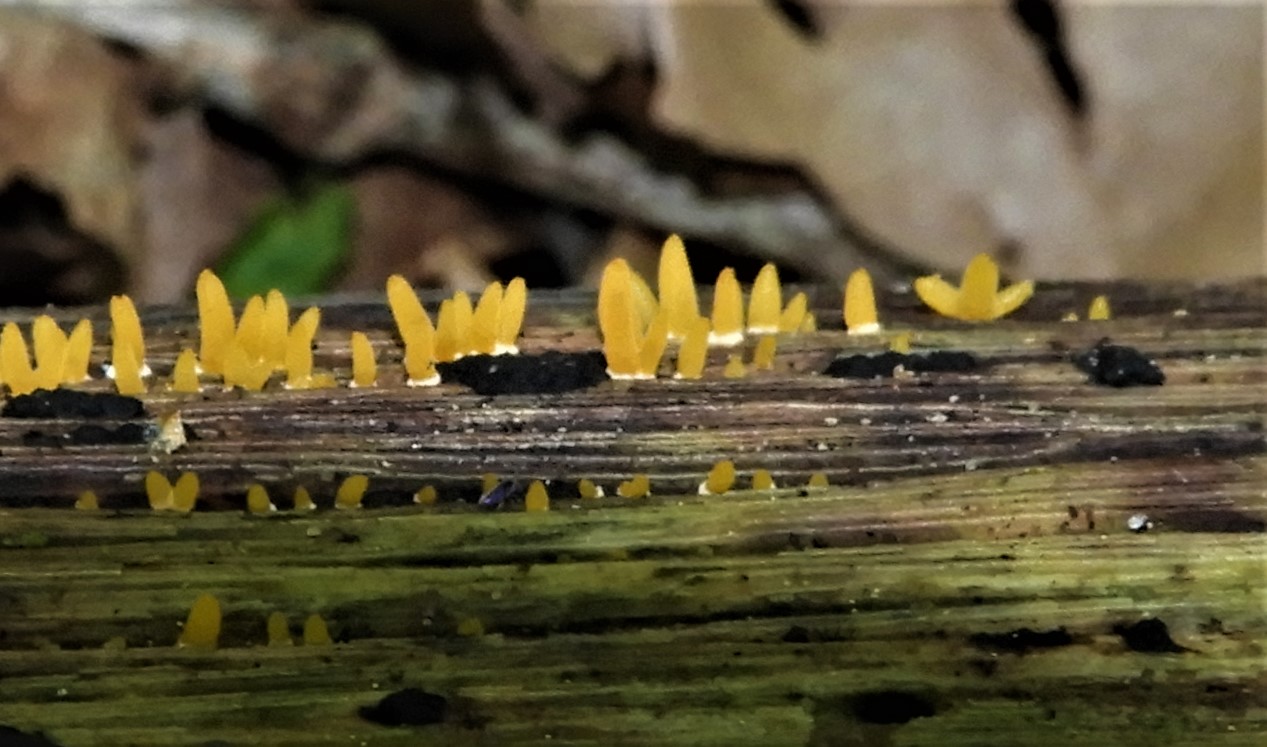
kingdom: Fungi
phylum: Basidiomycota
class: Dacrymycetes
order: Dacrymycetales
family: Dacrymycetaceae
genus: Calocera
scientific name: Calocera cornea
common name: liden guldgaffel
